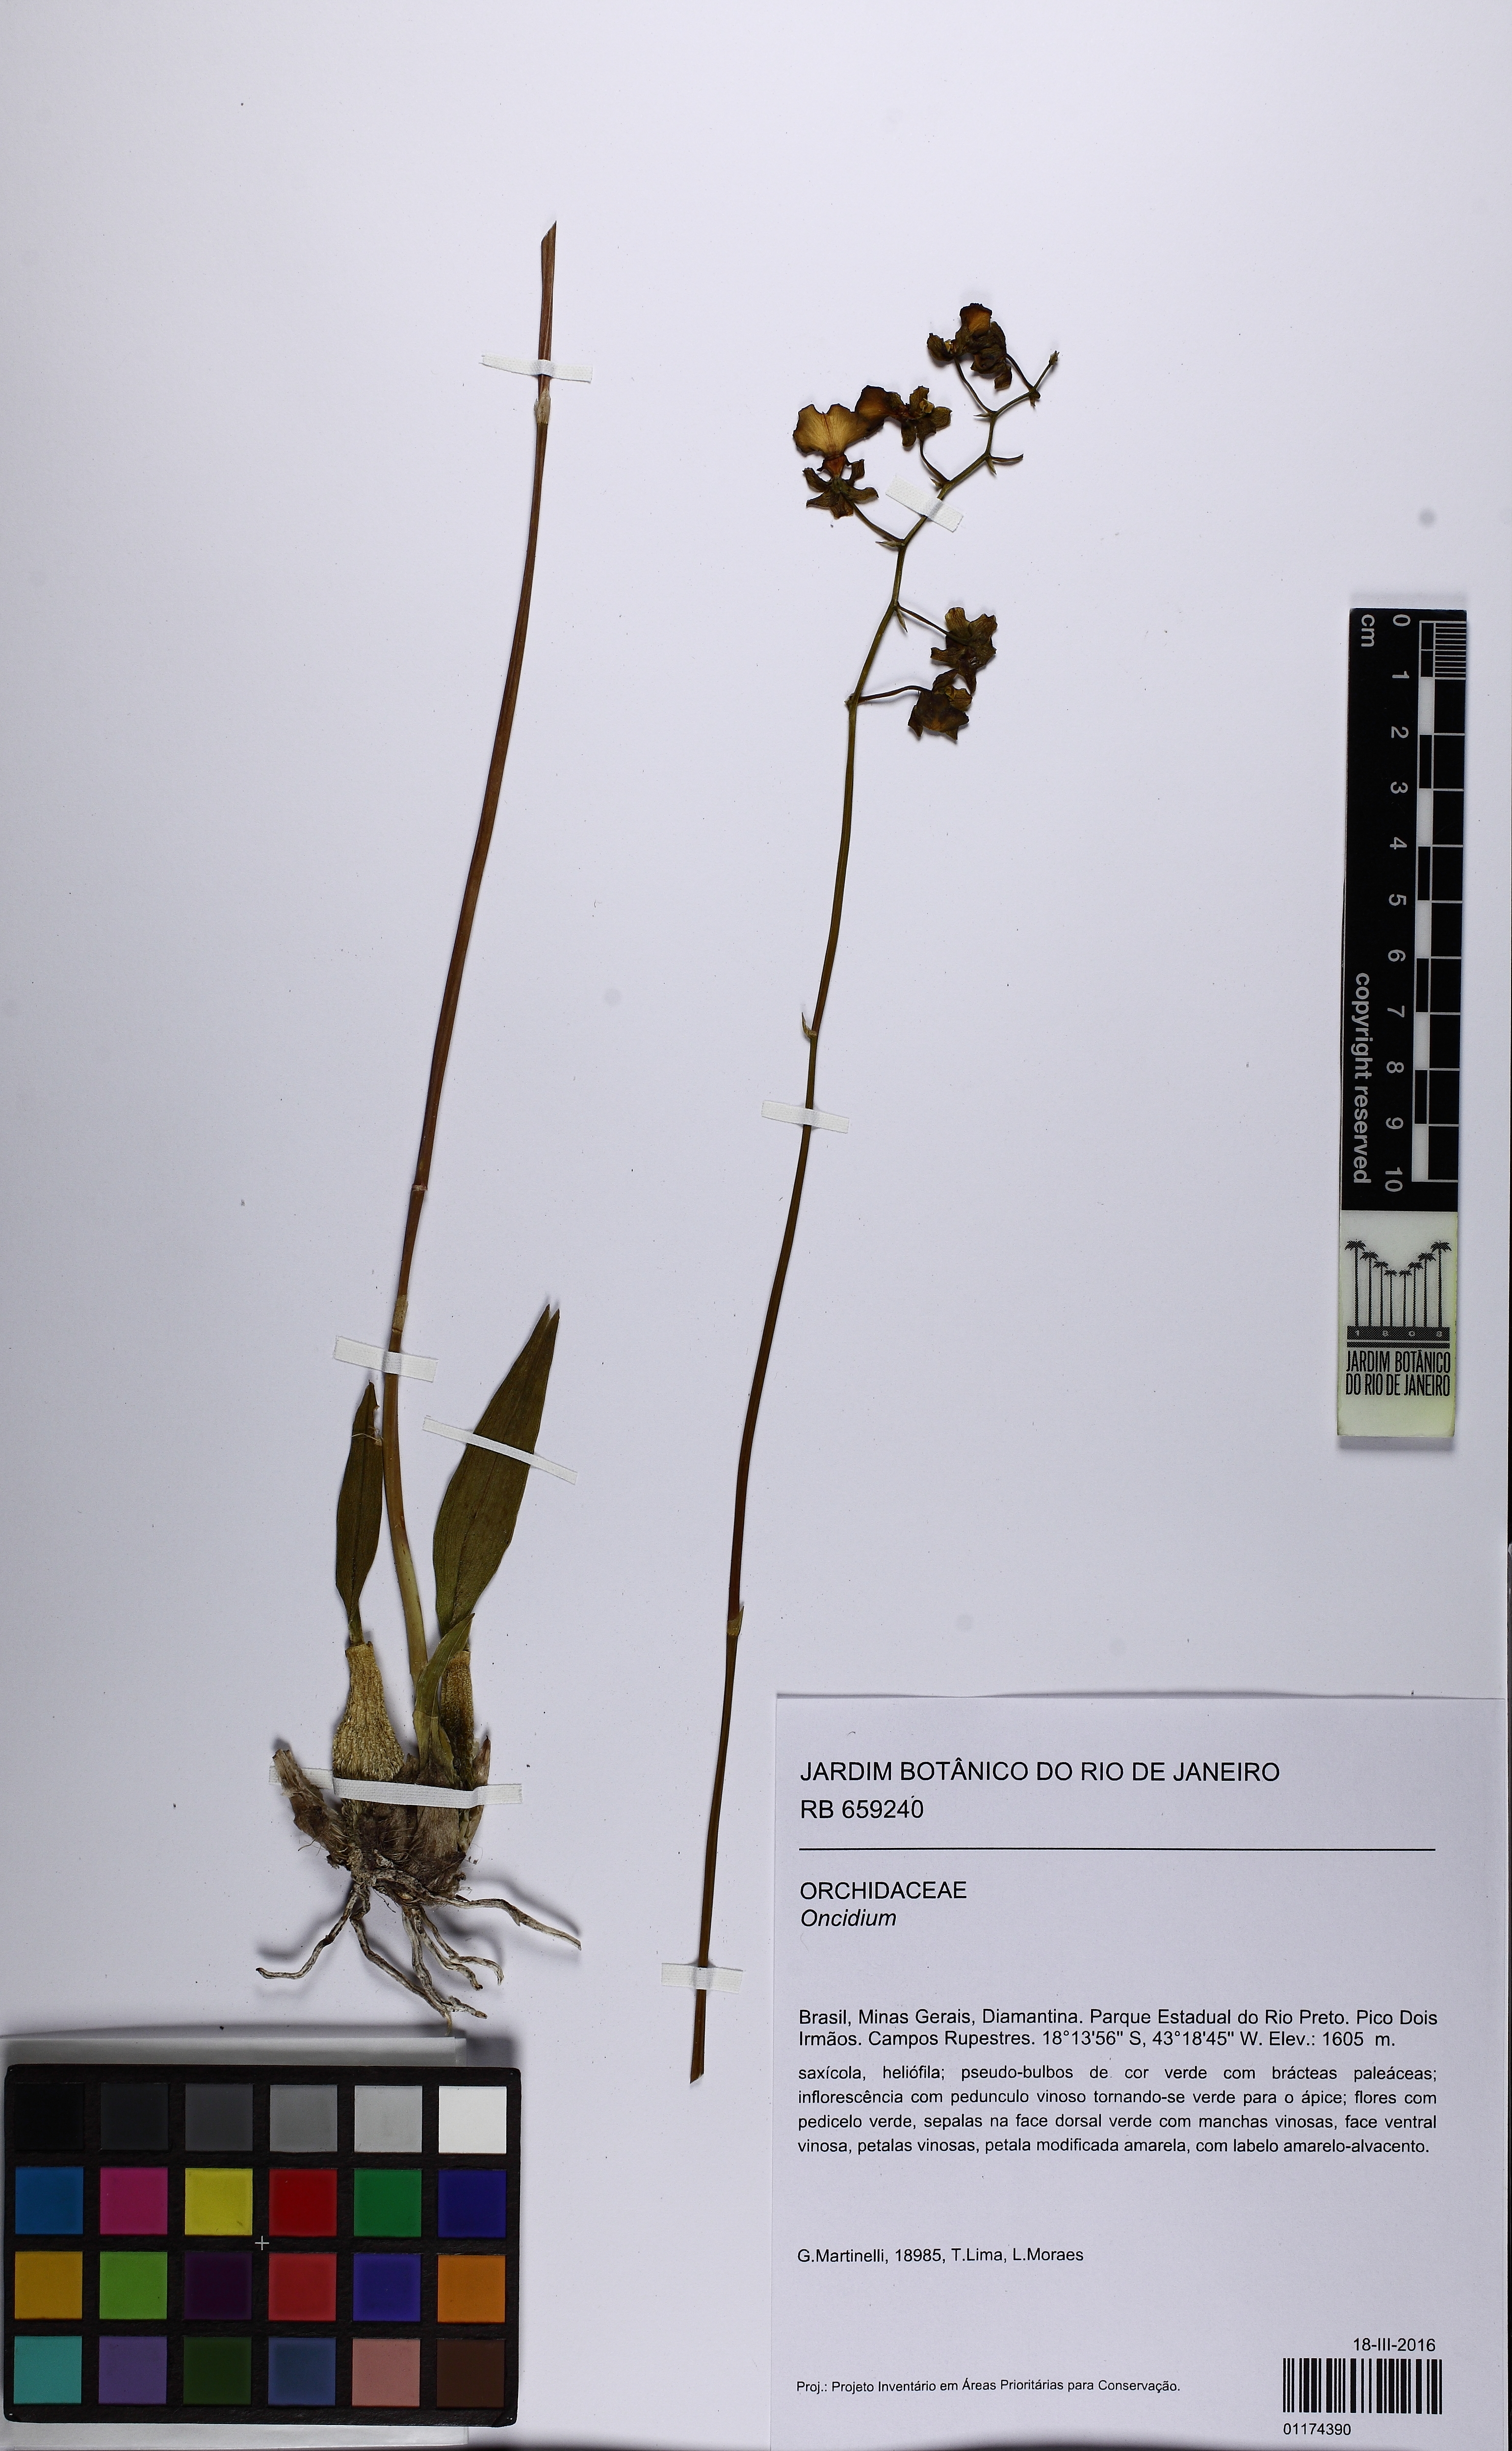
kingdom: Plantae
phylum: Tracheophyta
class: Liliopsida
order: Asparagales
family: Orchidaceae
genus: Oncidium
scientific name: Oncidium
